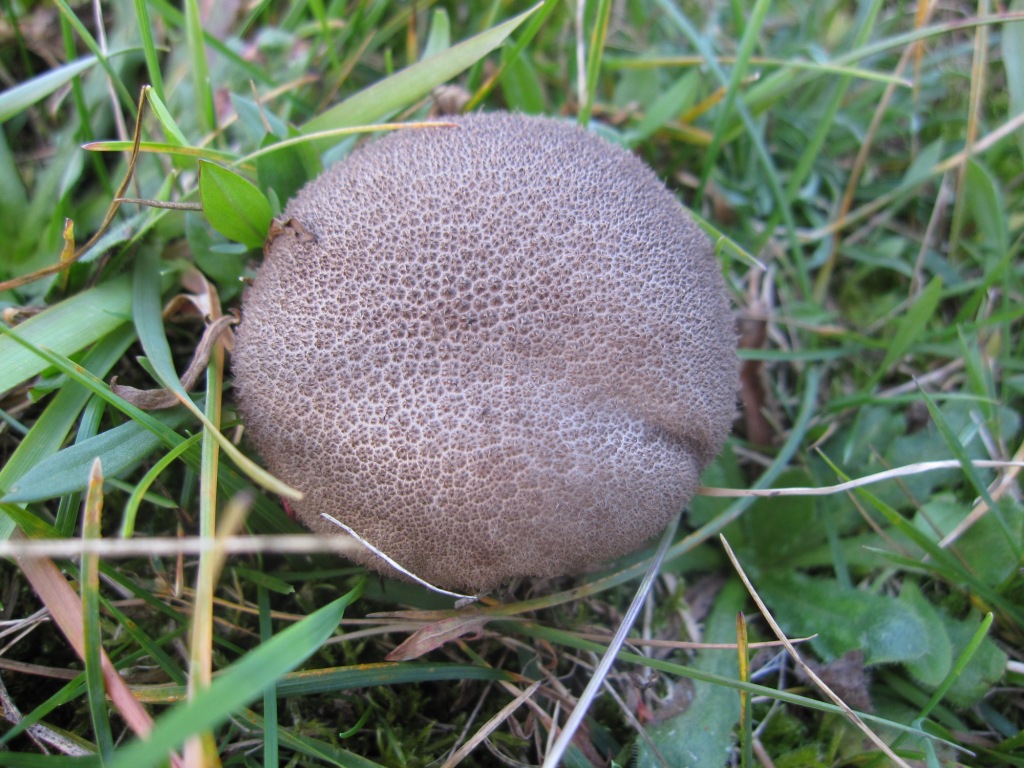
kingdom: Fungi
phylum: Basidiomycota
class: Agaricomycetes
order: Agaricales
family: Lycoperdaceae
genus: Lycoperdon
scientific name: Lycoperdon nigrescens
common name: sortagtig støvbold
